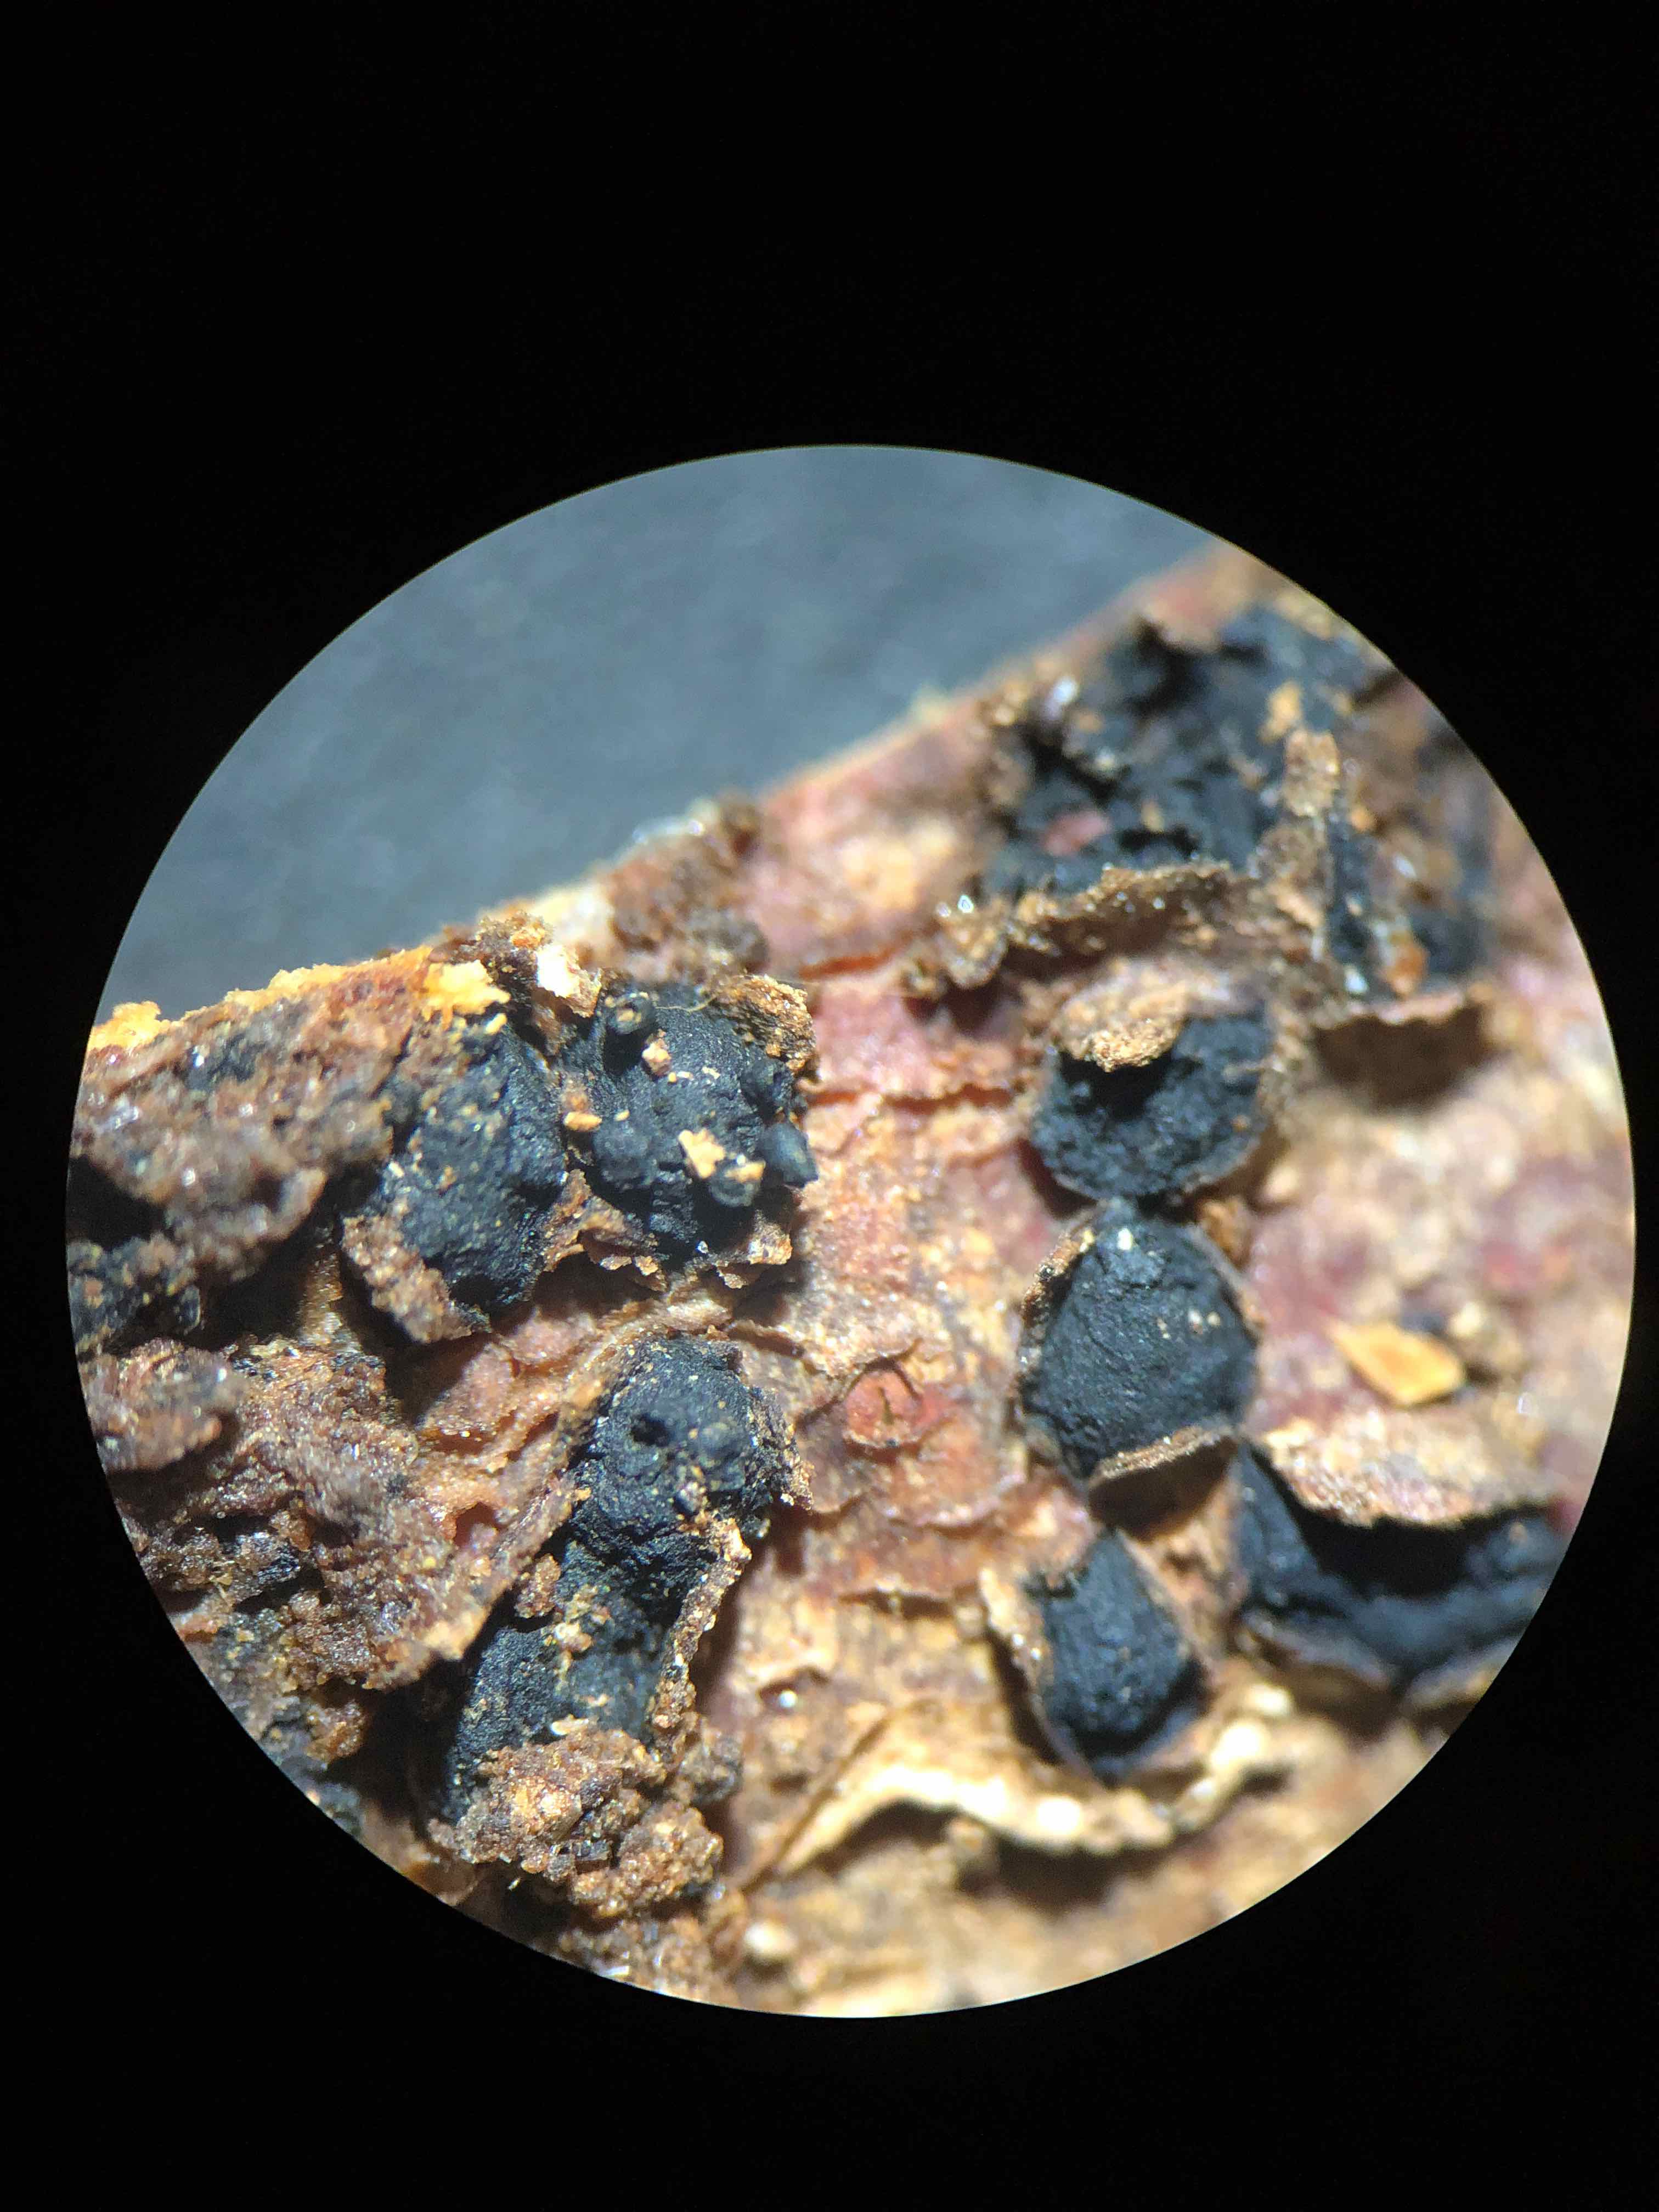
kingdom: Fungi
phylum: Ascomycota
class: Sordariomycetes
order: Xylariales
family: Melogrammataceae
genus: Melogramma
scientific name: Melogramma spiniferum
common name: bøgefod-kulhals
